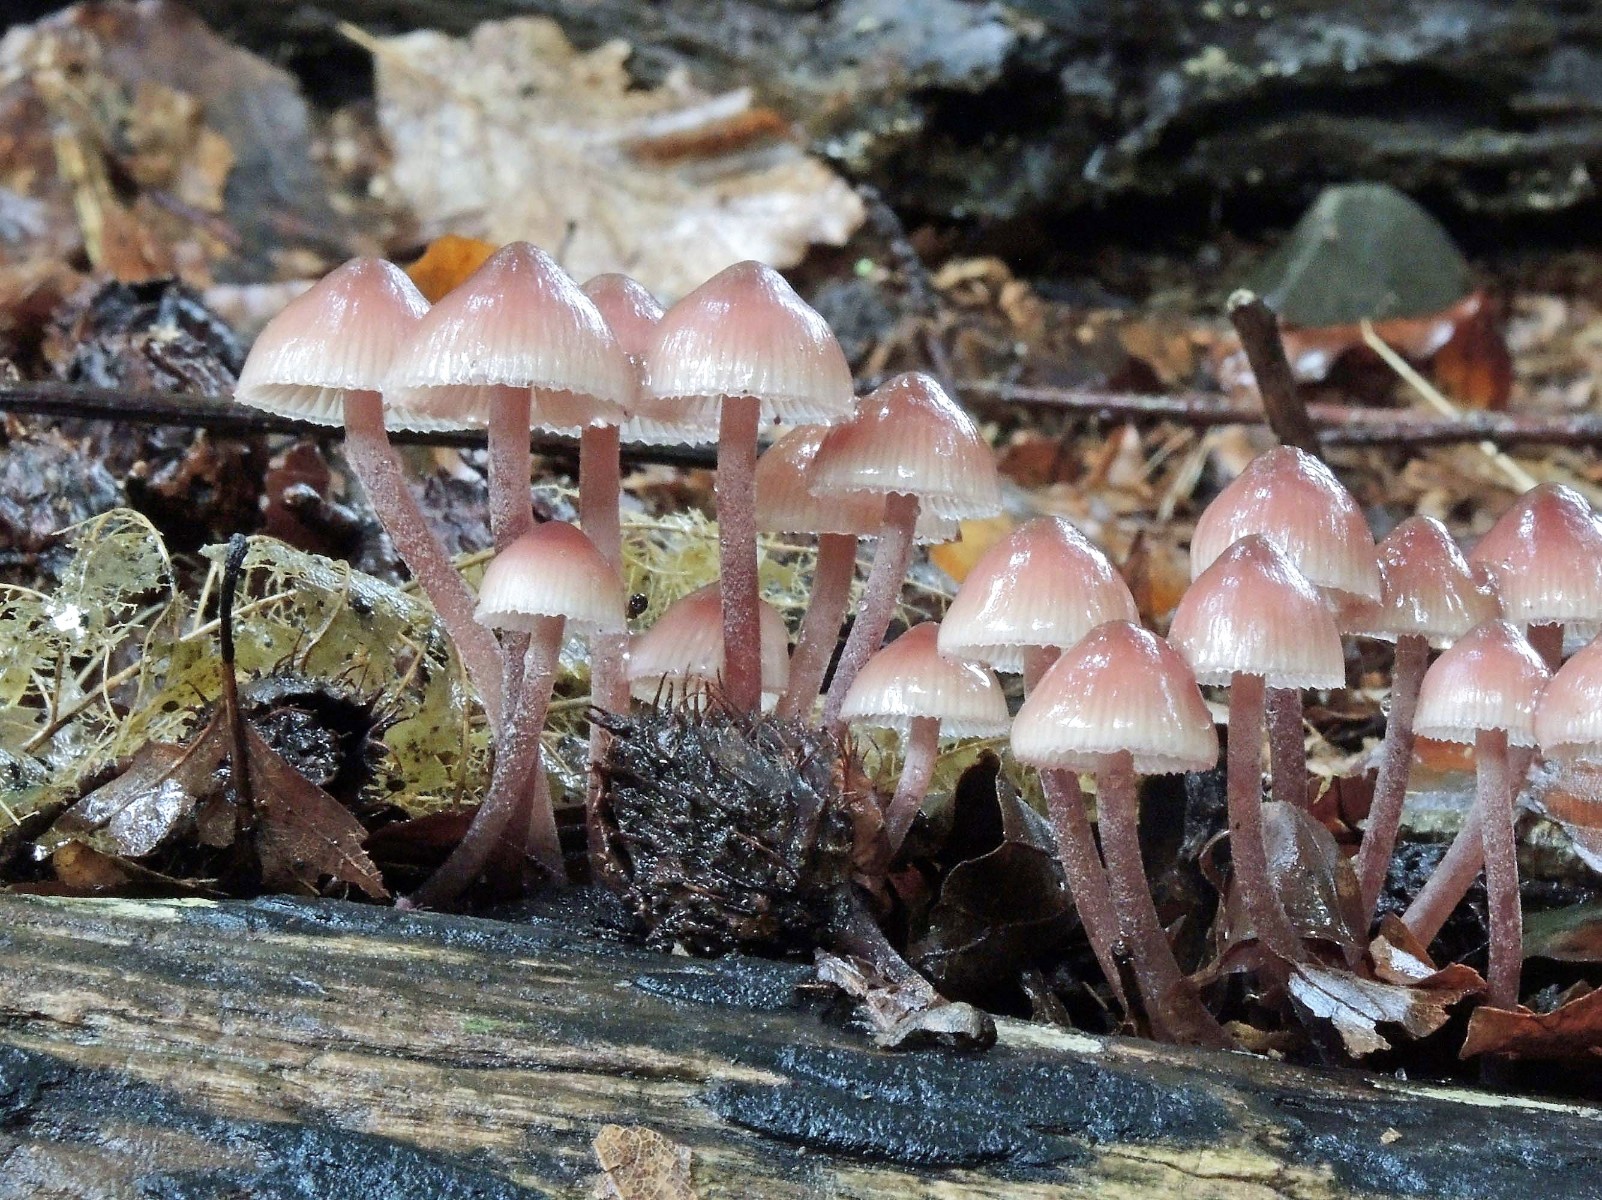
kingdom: Fungi
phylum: Basidiomycota
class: Agaricomycetes
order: Agaricales
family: Mycenaceae
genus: Mycena
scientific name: Mycena haematopus
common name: blødende huesvamp
